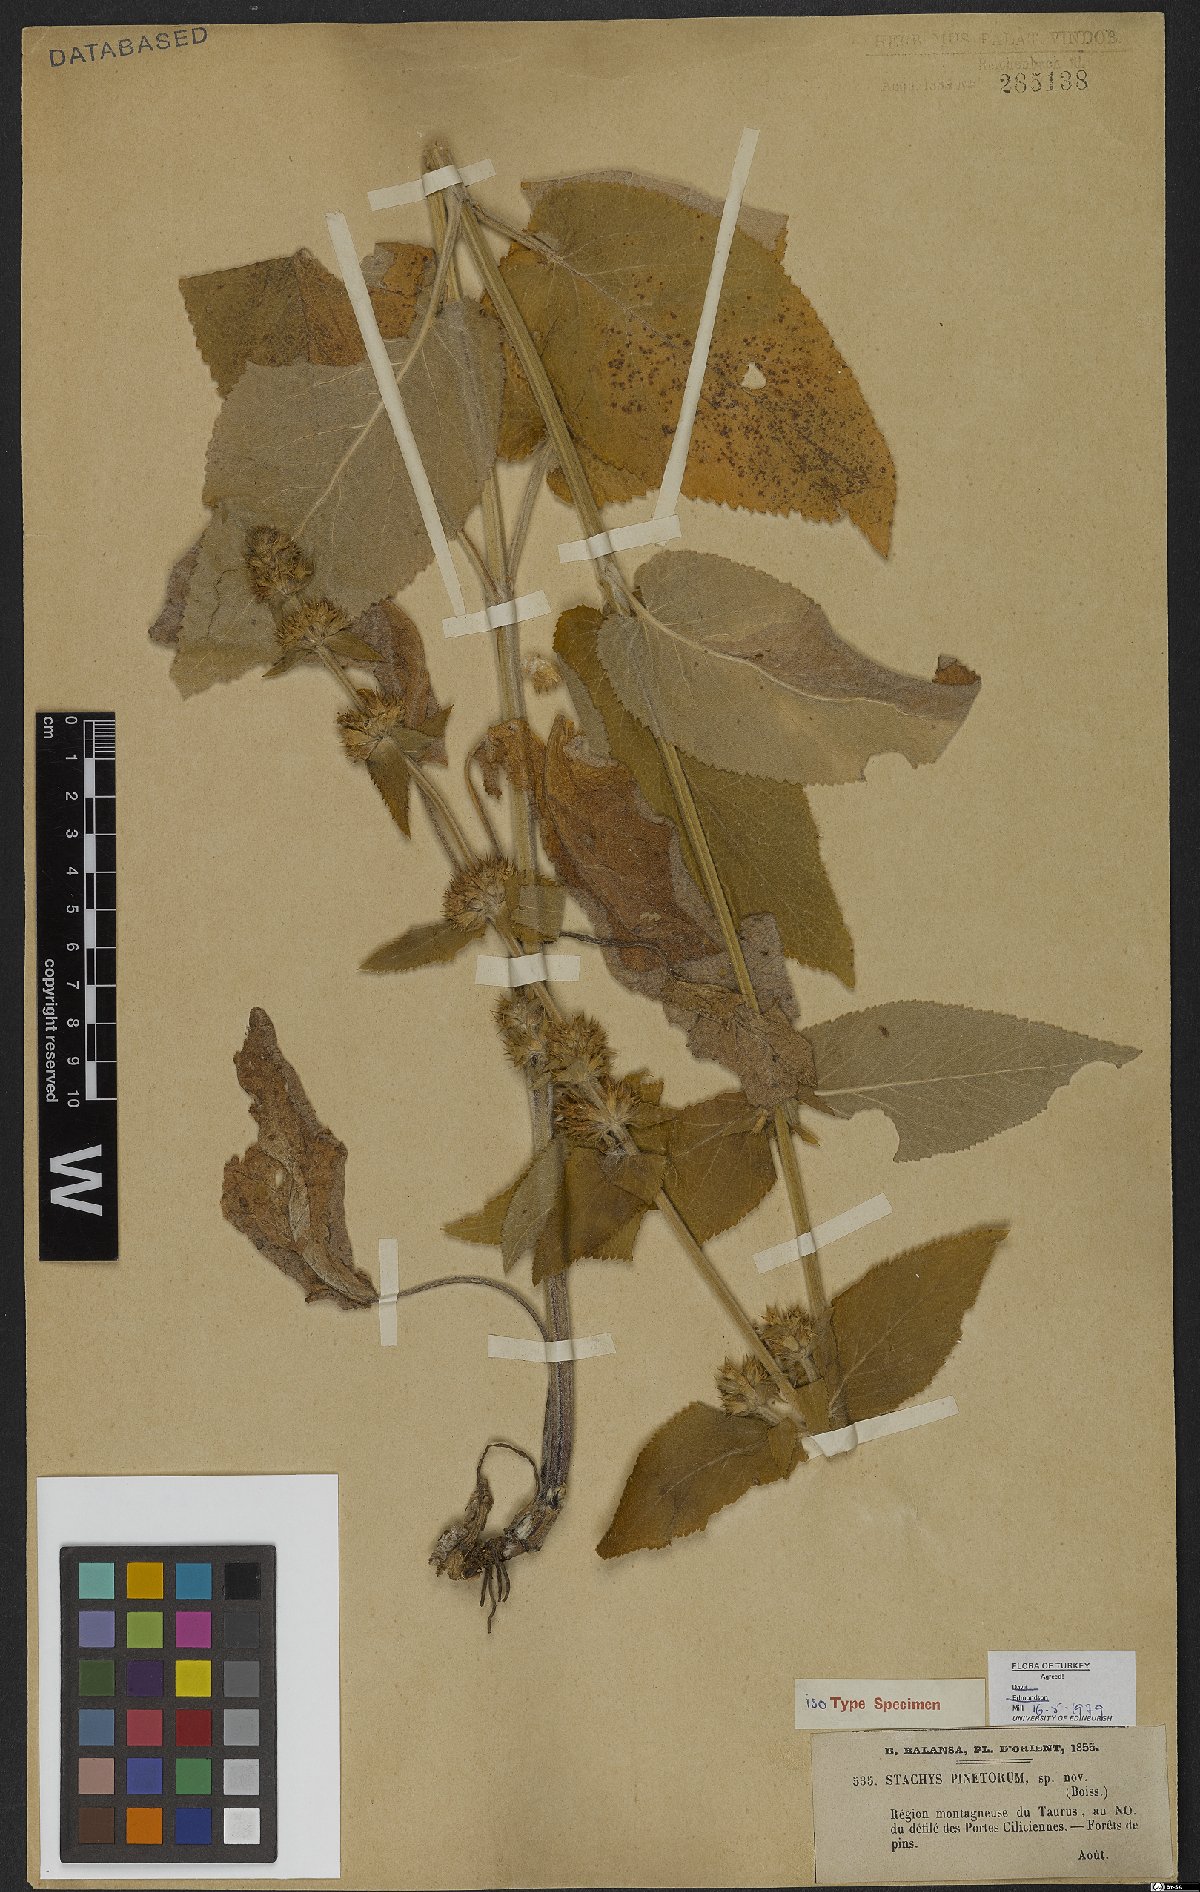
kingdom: Plantae
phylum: Tracheophyta
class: Magnoliopsida
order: Lamiales
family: Lamiaceae
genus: Stachys
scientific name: Stachys pinetorum
